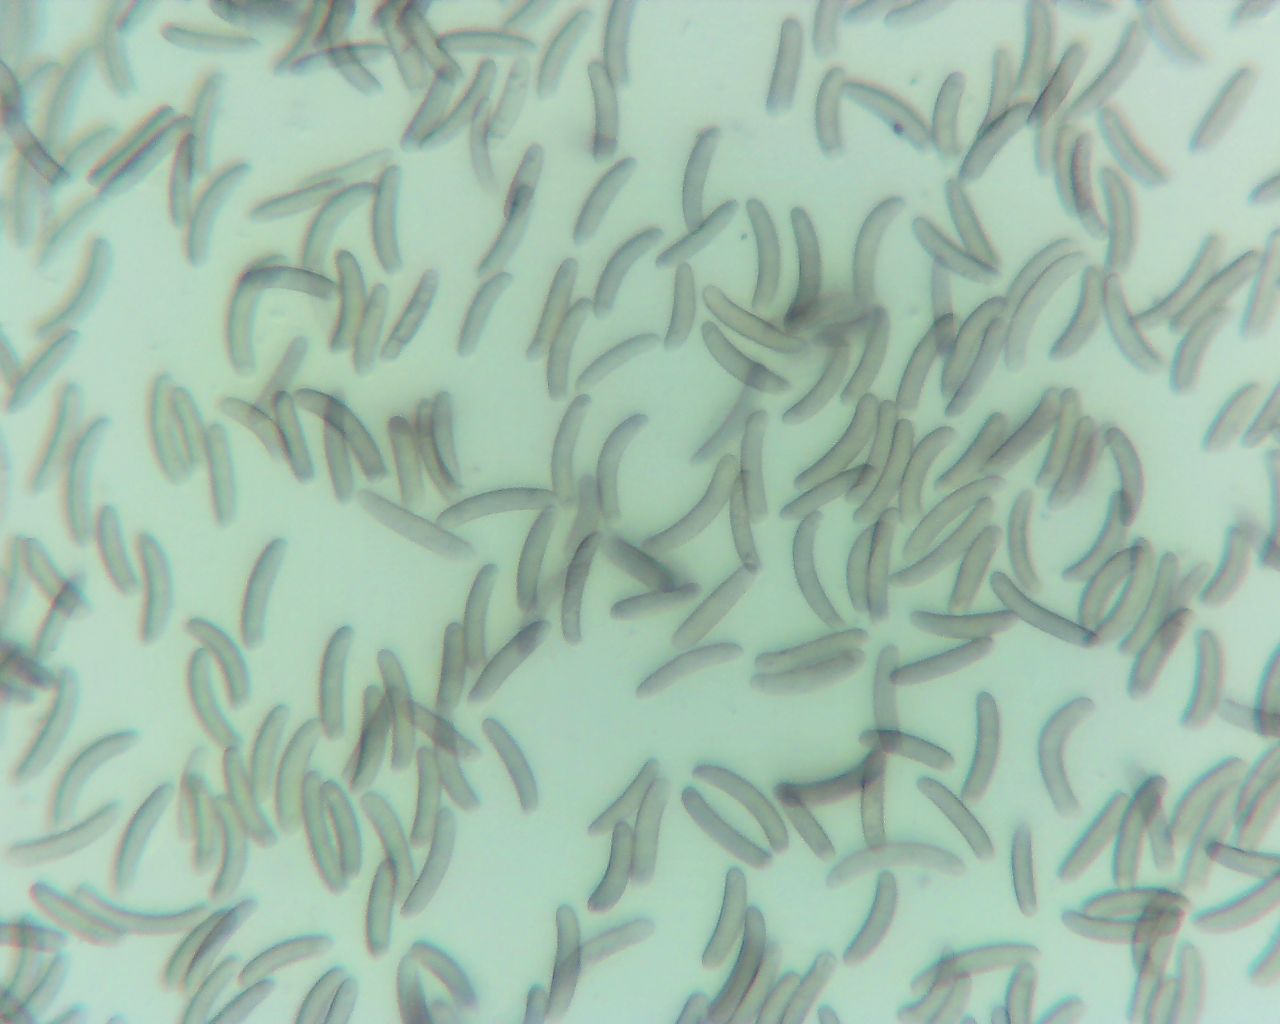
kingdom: Fungi
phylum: Ascomycota
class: Sordariomycetes
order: Xylariales
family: Diatrypaceae
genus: Eutypella
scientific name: Eutypella quaternata
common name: bøge-korsprik
